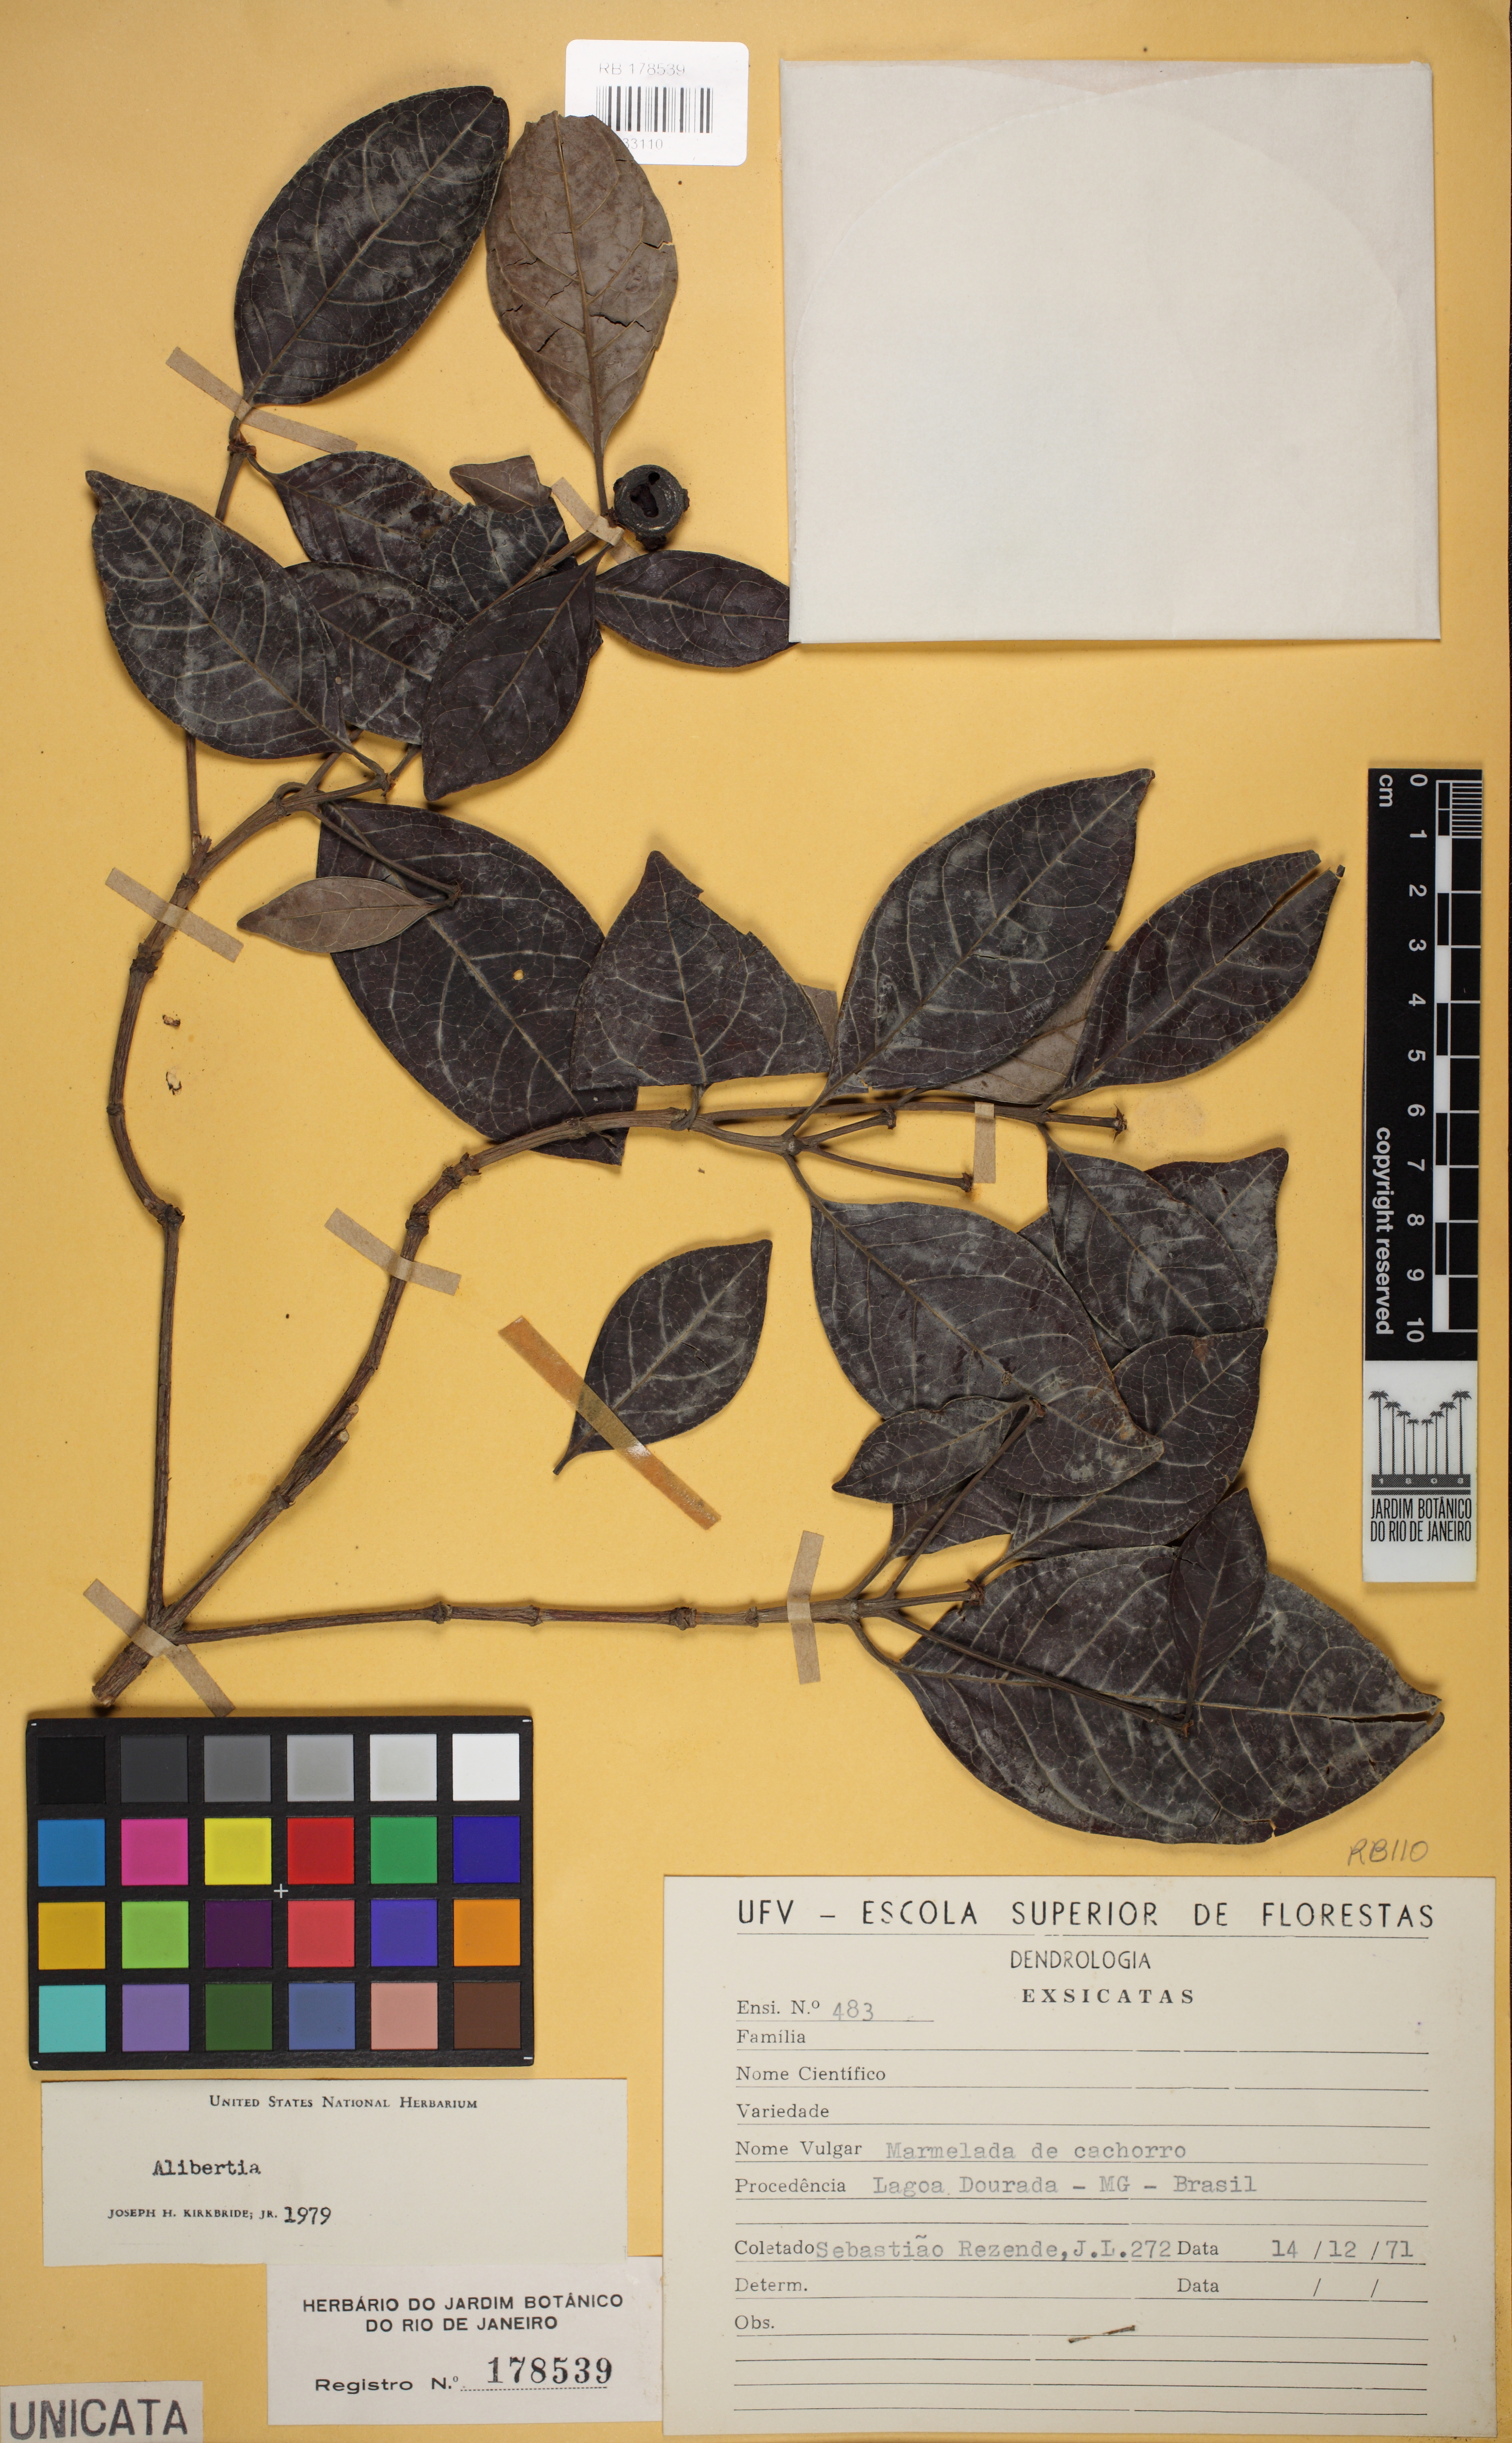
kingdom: Plantae
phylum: Tracheophyta
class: Magnoliopsida
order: Gentianales
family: Rubiaceae
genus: Cordiera
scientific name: Cordiera sessilis
